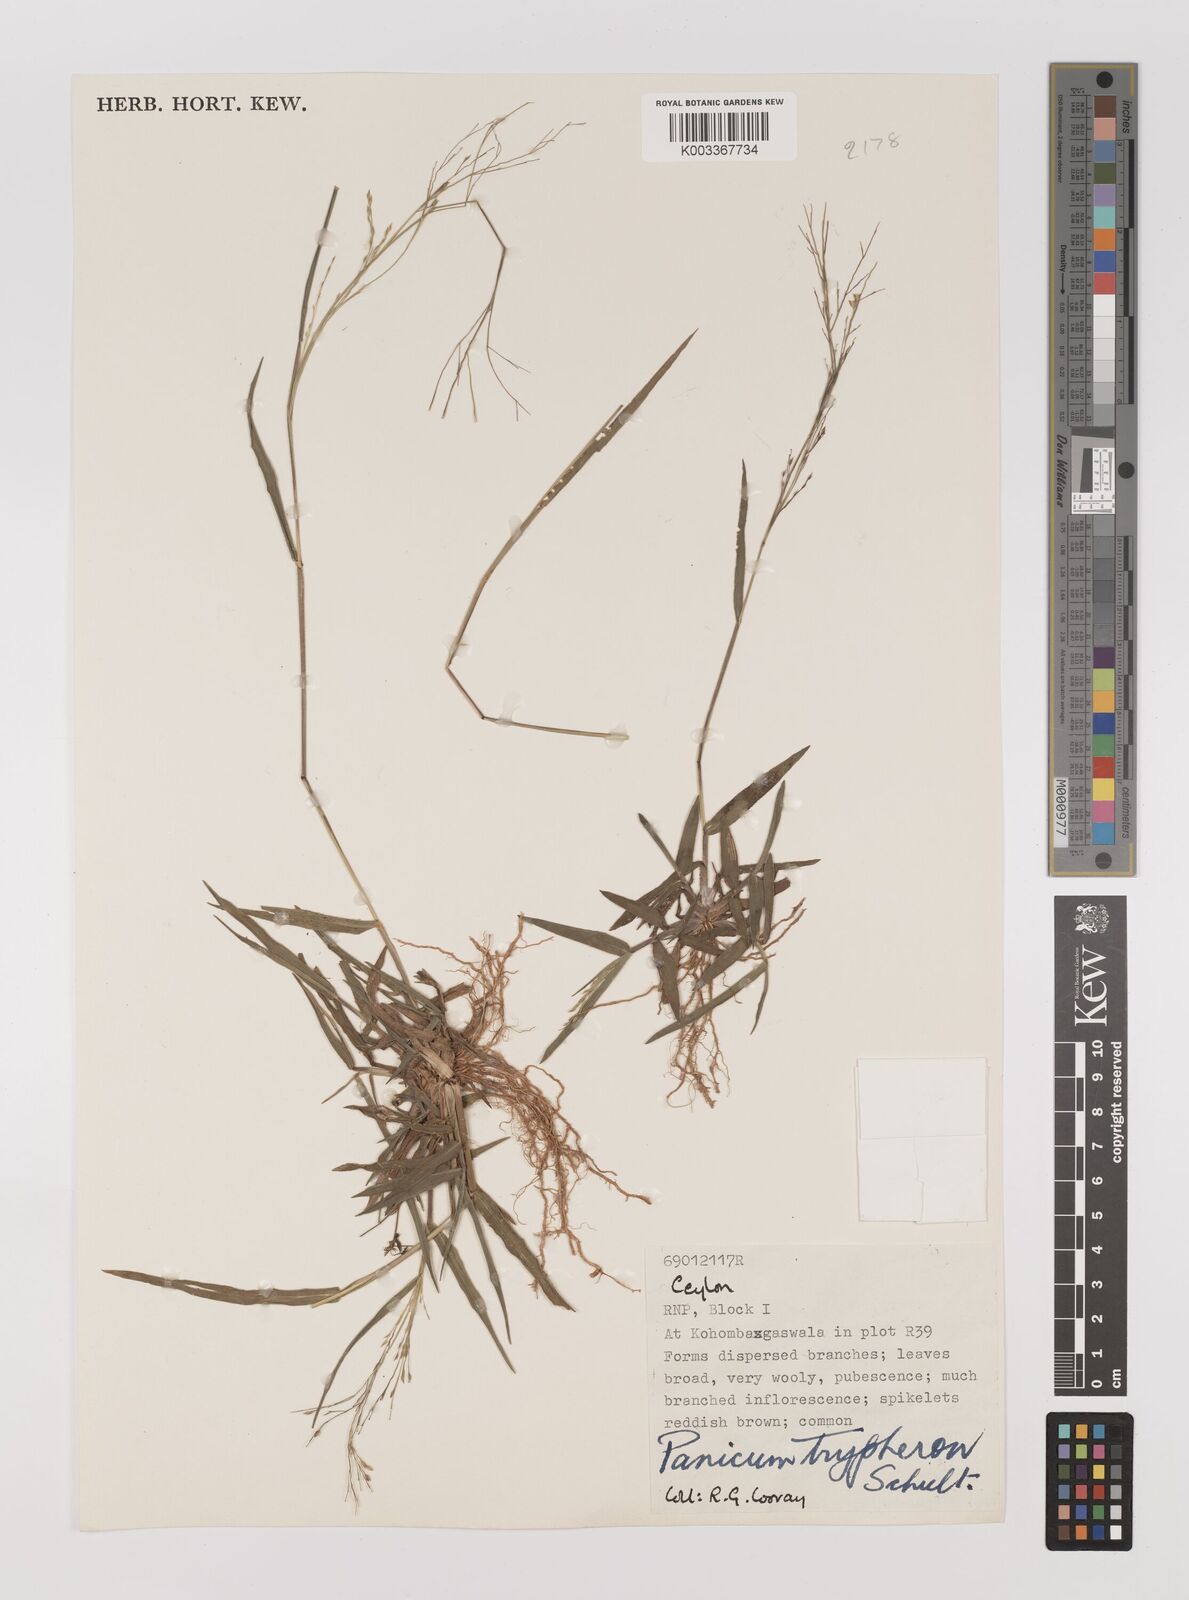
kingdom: Plantae
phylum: Tracheophyta
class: Liliopsida
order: Poales
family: Poaceae
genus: Panicum
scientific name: Panicum curviflorum
